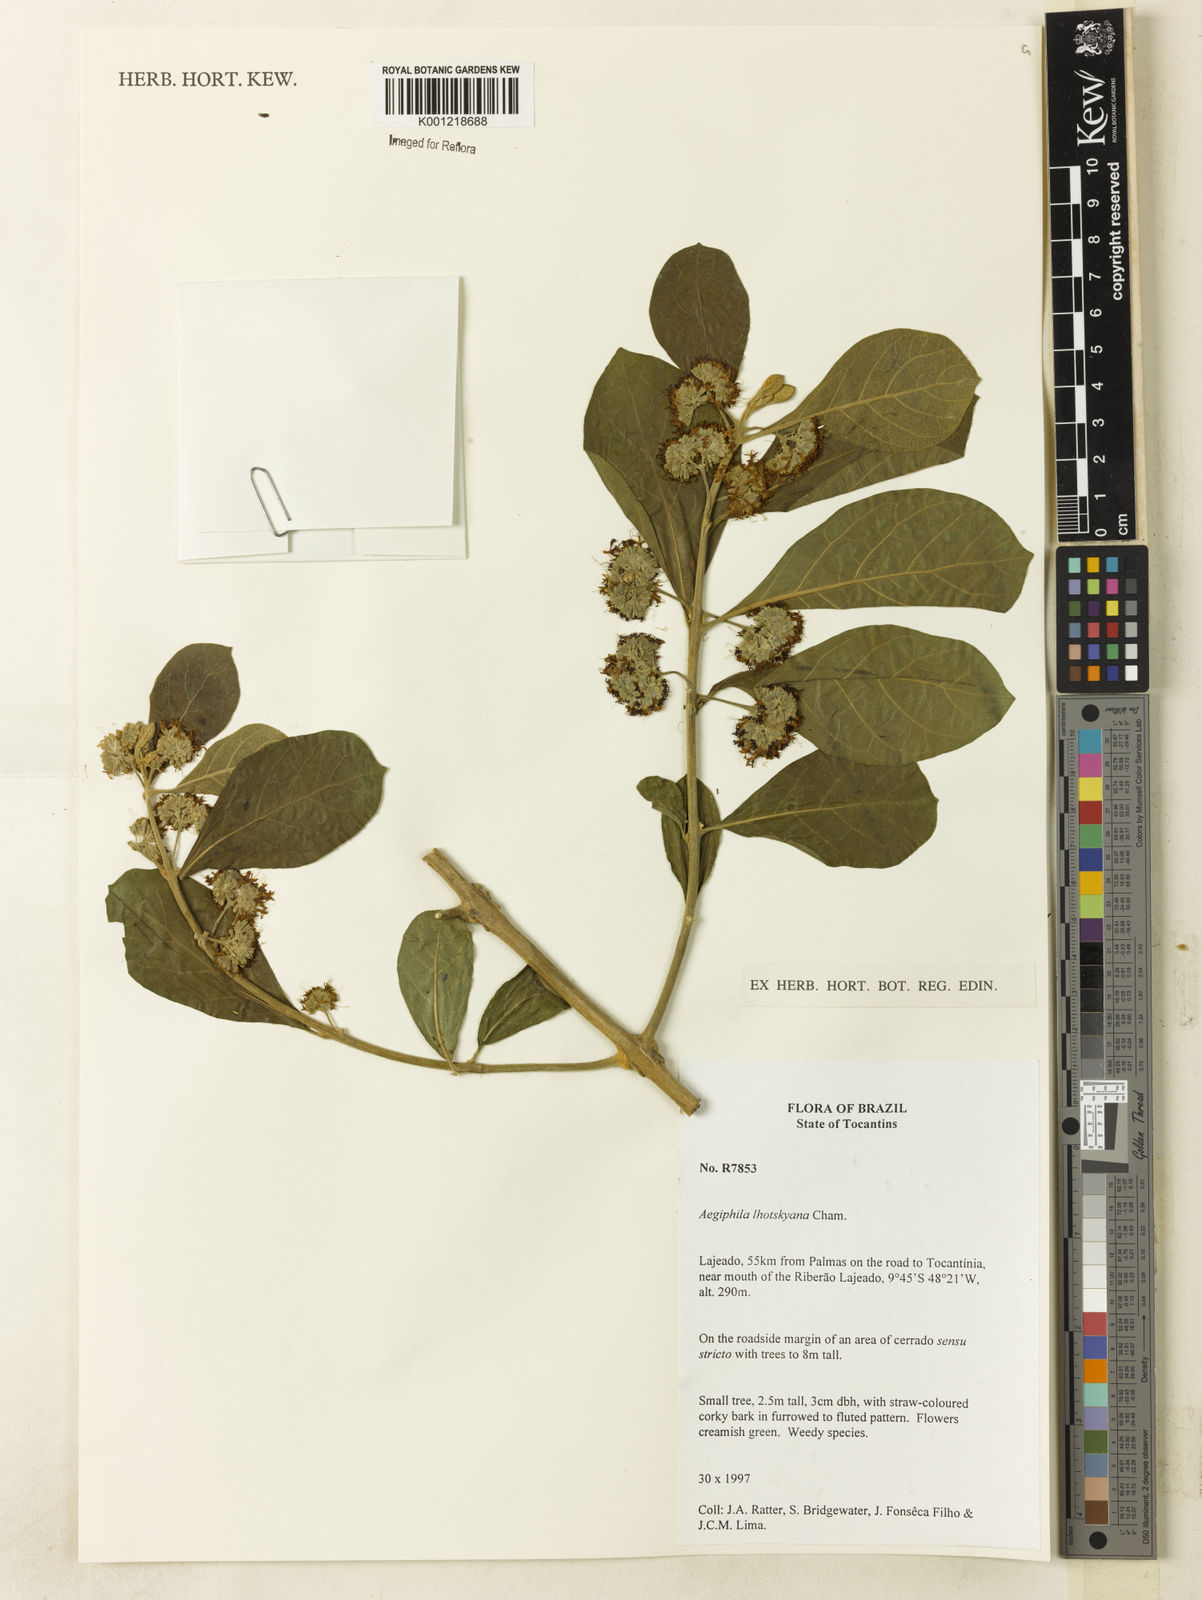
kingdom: Plantae
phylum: Tracheophyta
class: Magnoliopsida
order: Lamiales
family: Lamiaceae
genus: Aegiphila
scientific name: Aegiphila verticillata
